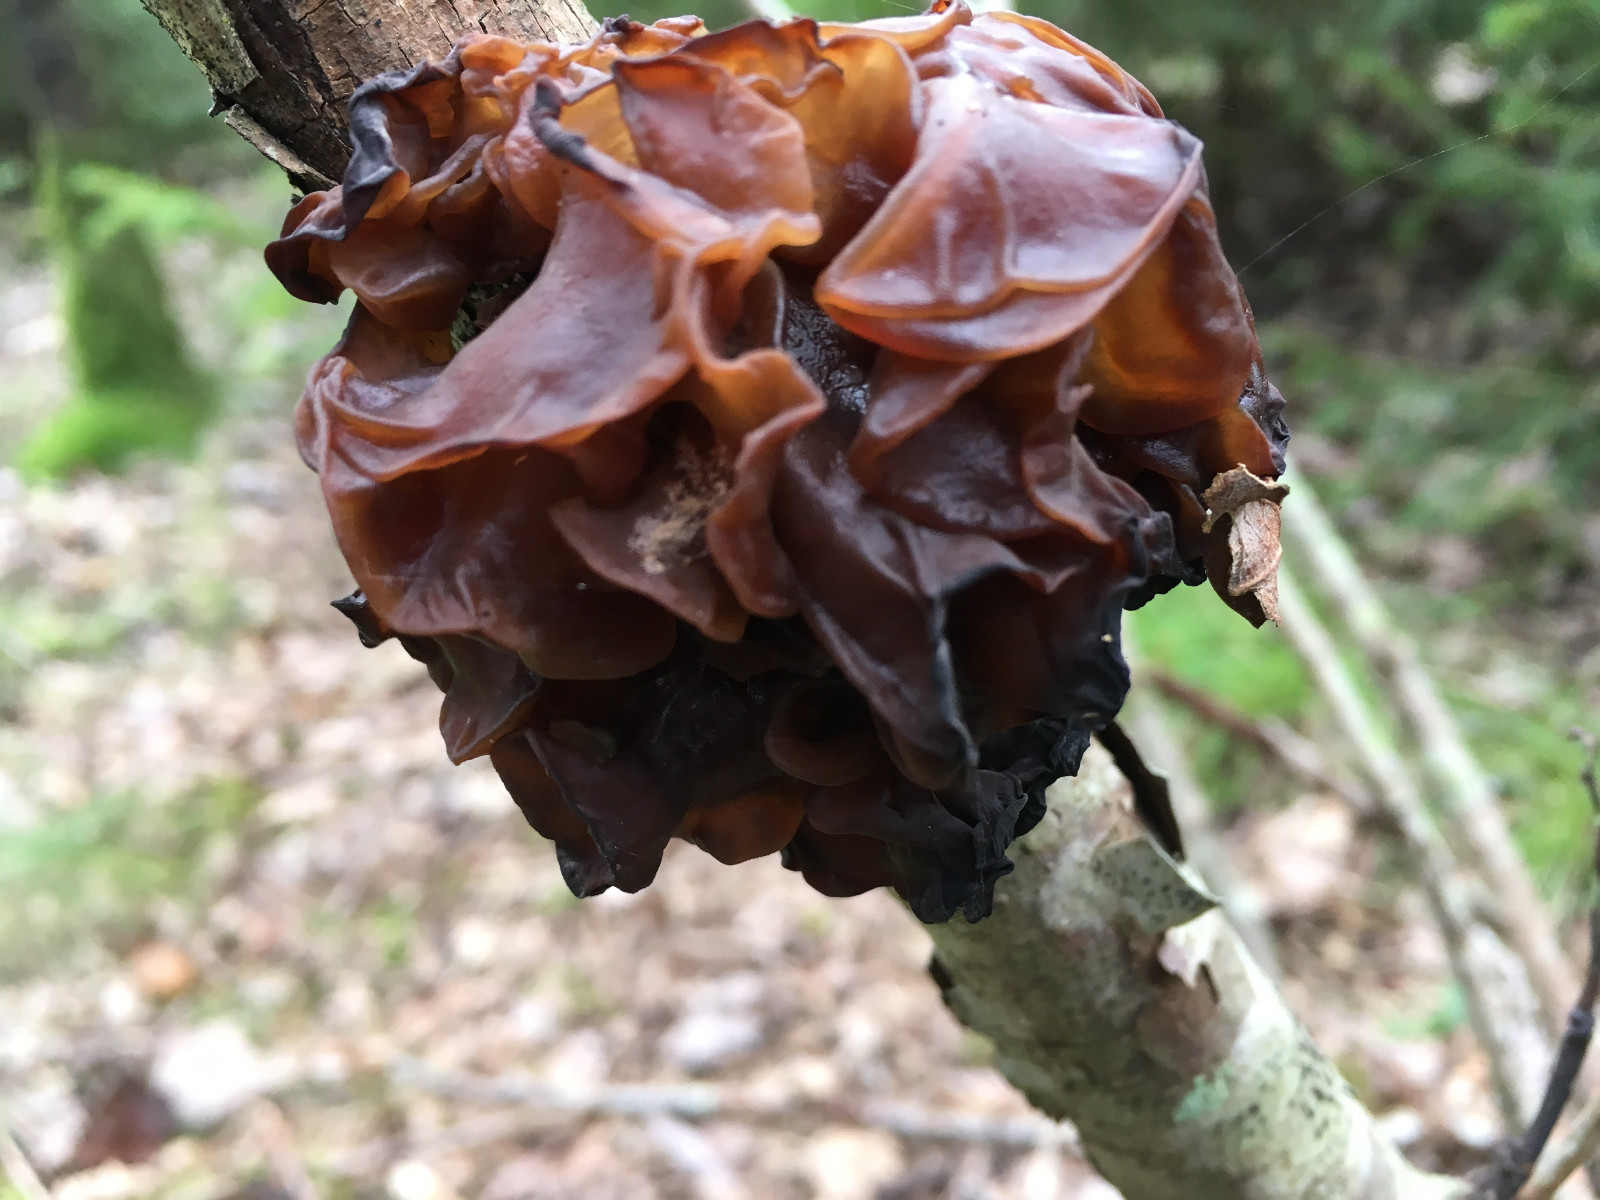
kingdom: Fungi
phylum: Basidiomycota
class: Tremellomycetes
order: Tremellales
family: Tremellaceae
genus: Phaeotremella
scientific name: Phaeotremella frondosa
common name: kæmpe-bævresvamp
